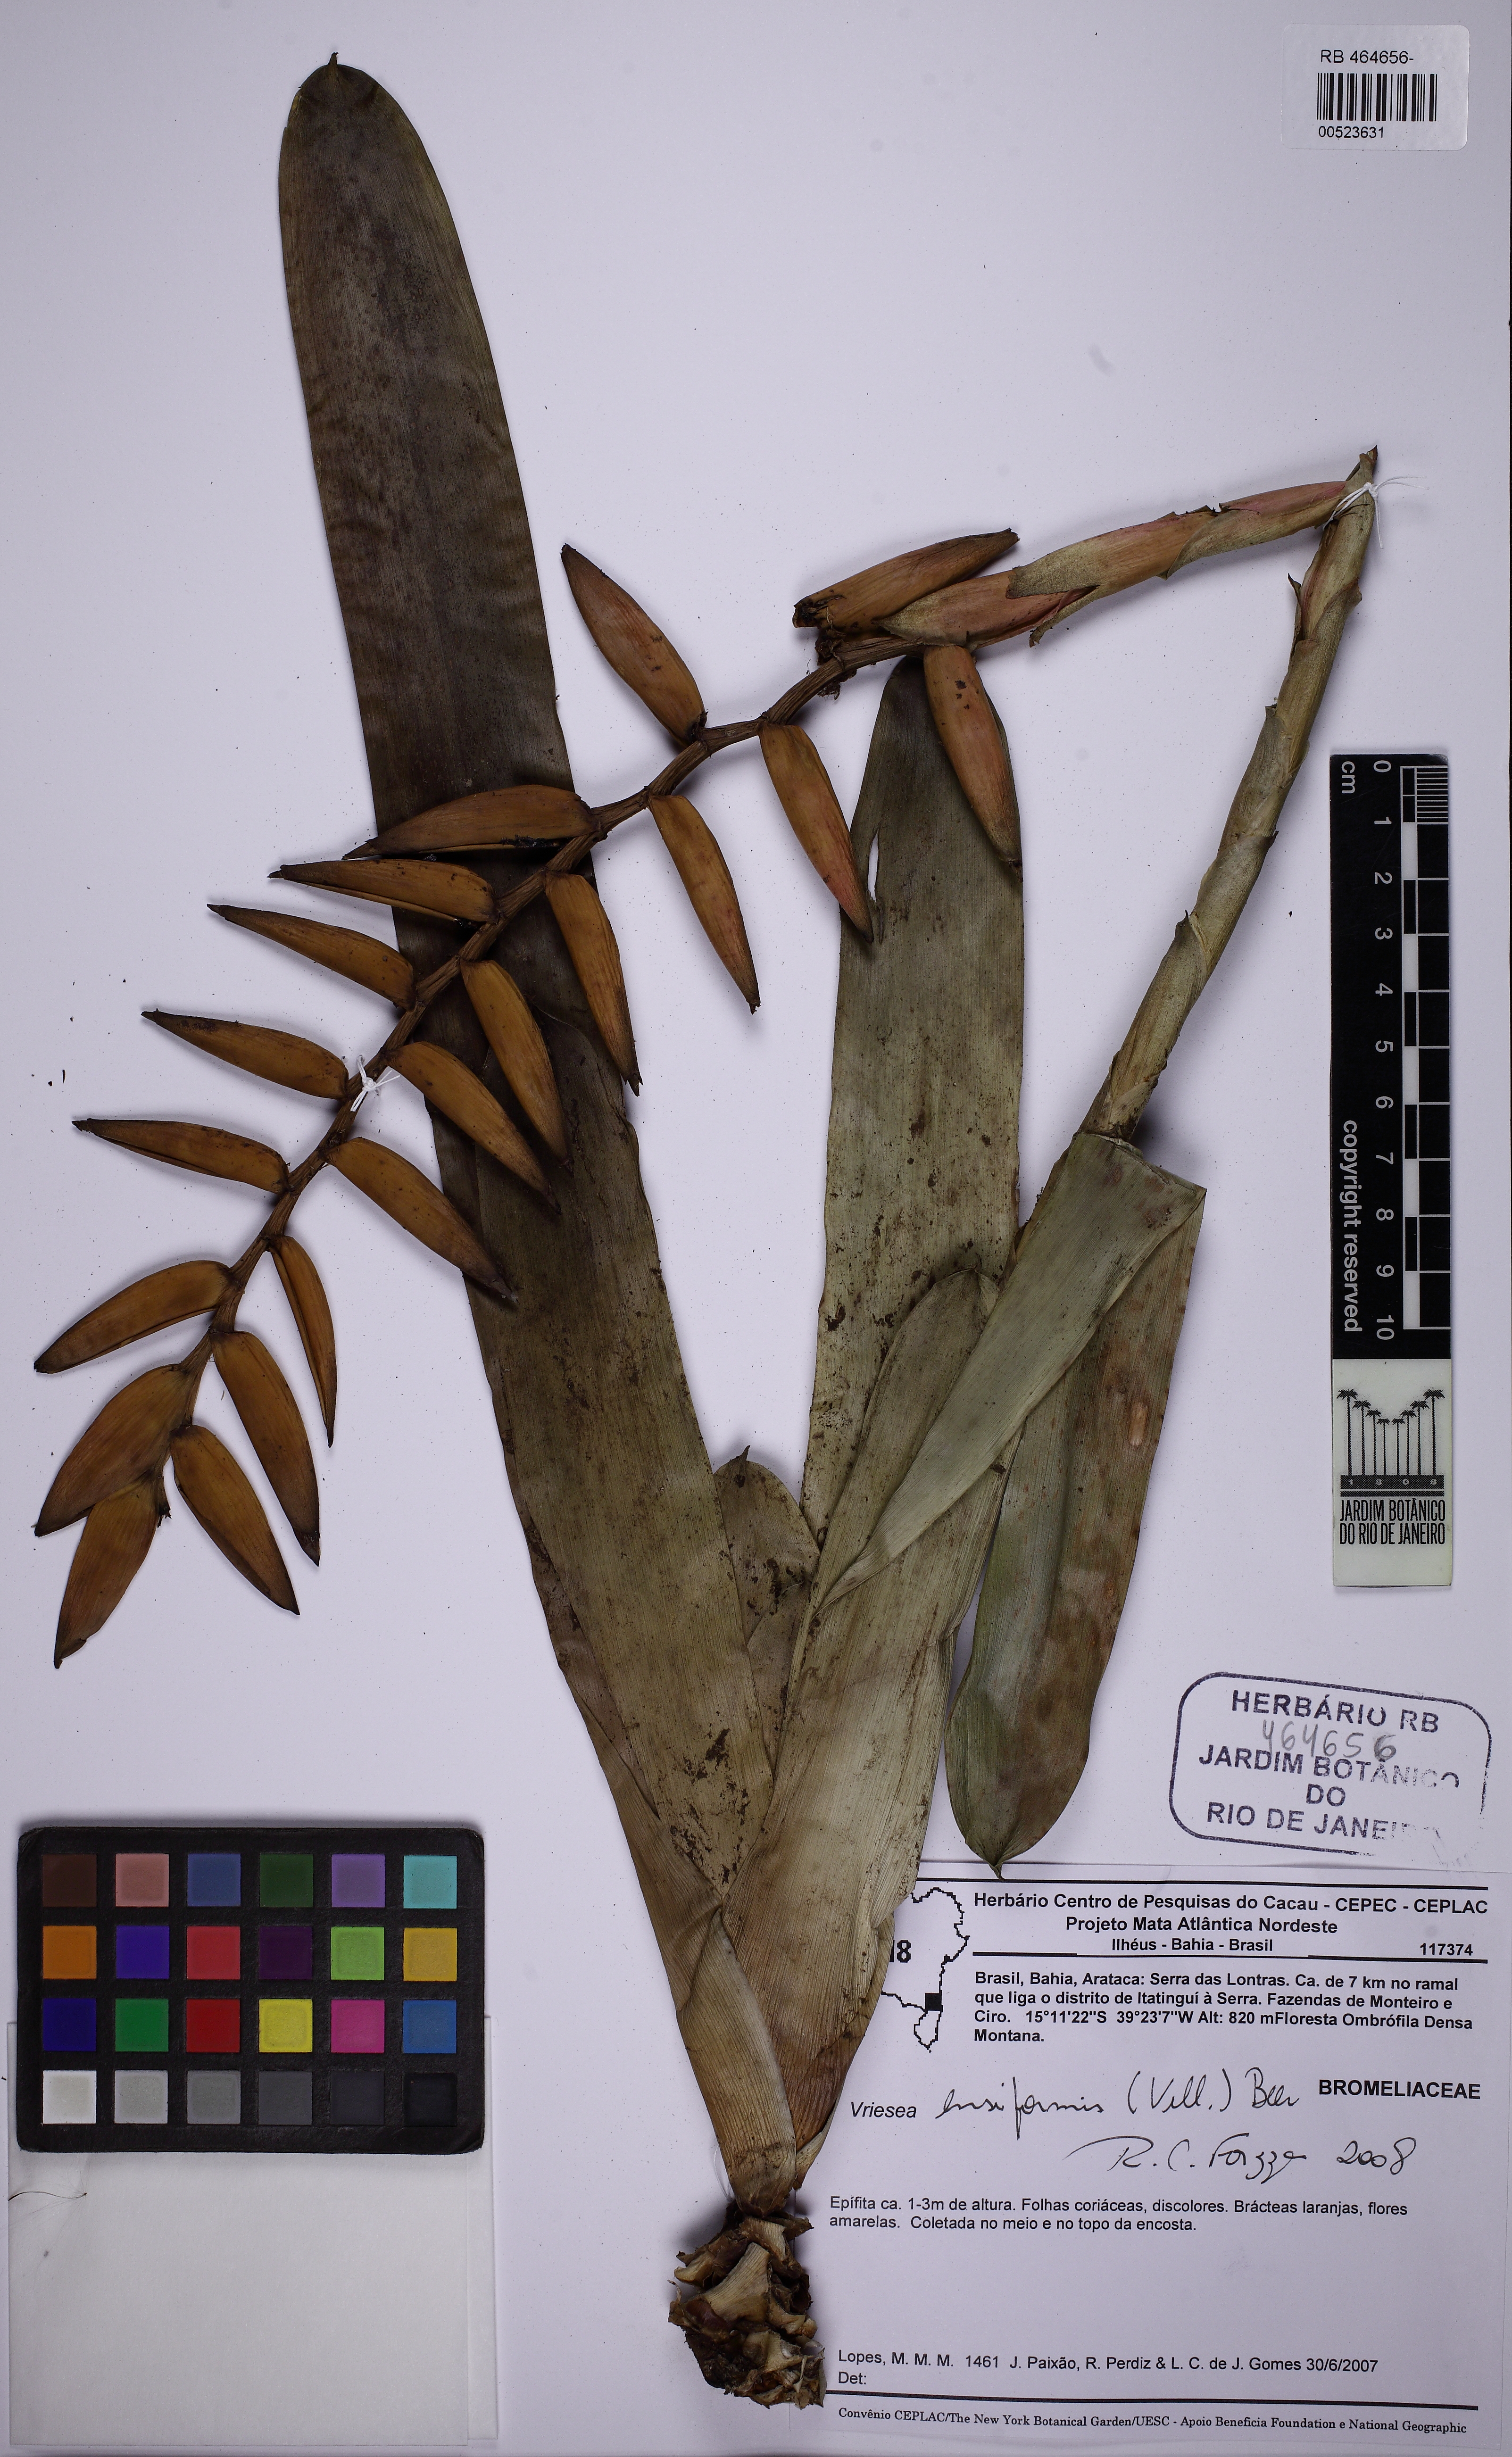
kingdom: Plantae
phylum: Tracheophyta
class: Liliopsida
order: Poales
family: Bromeliaceae
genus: Vriesea
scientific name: Vriesea ensiformis
